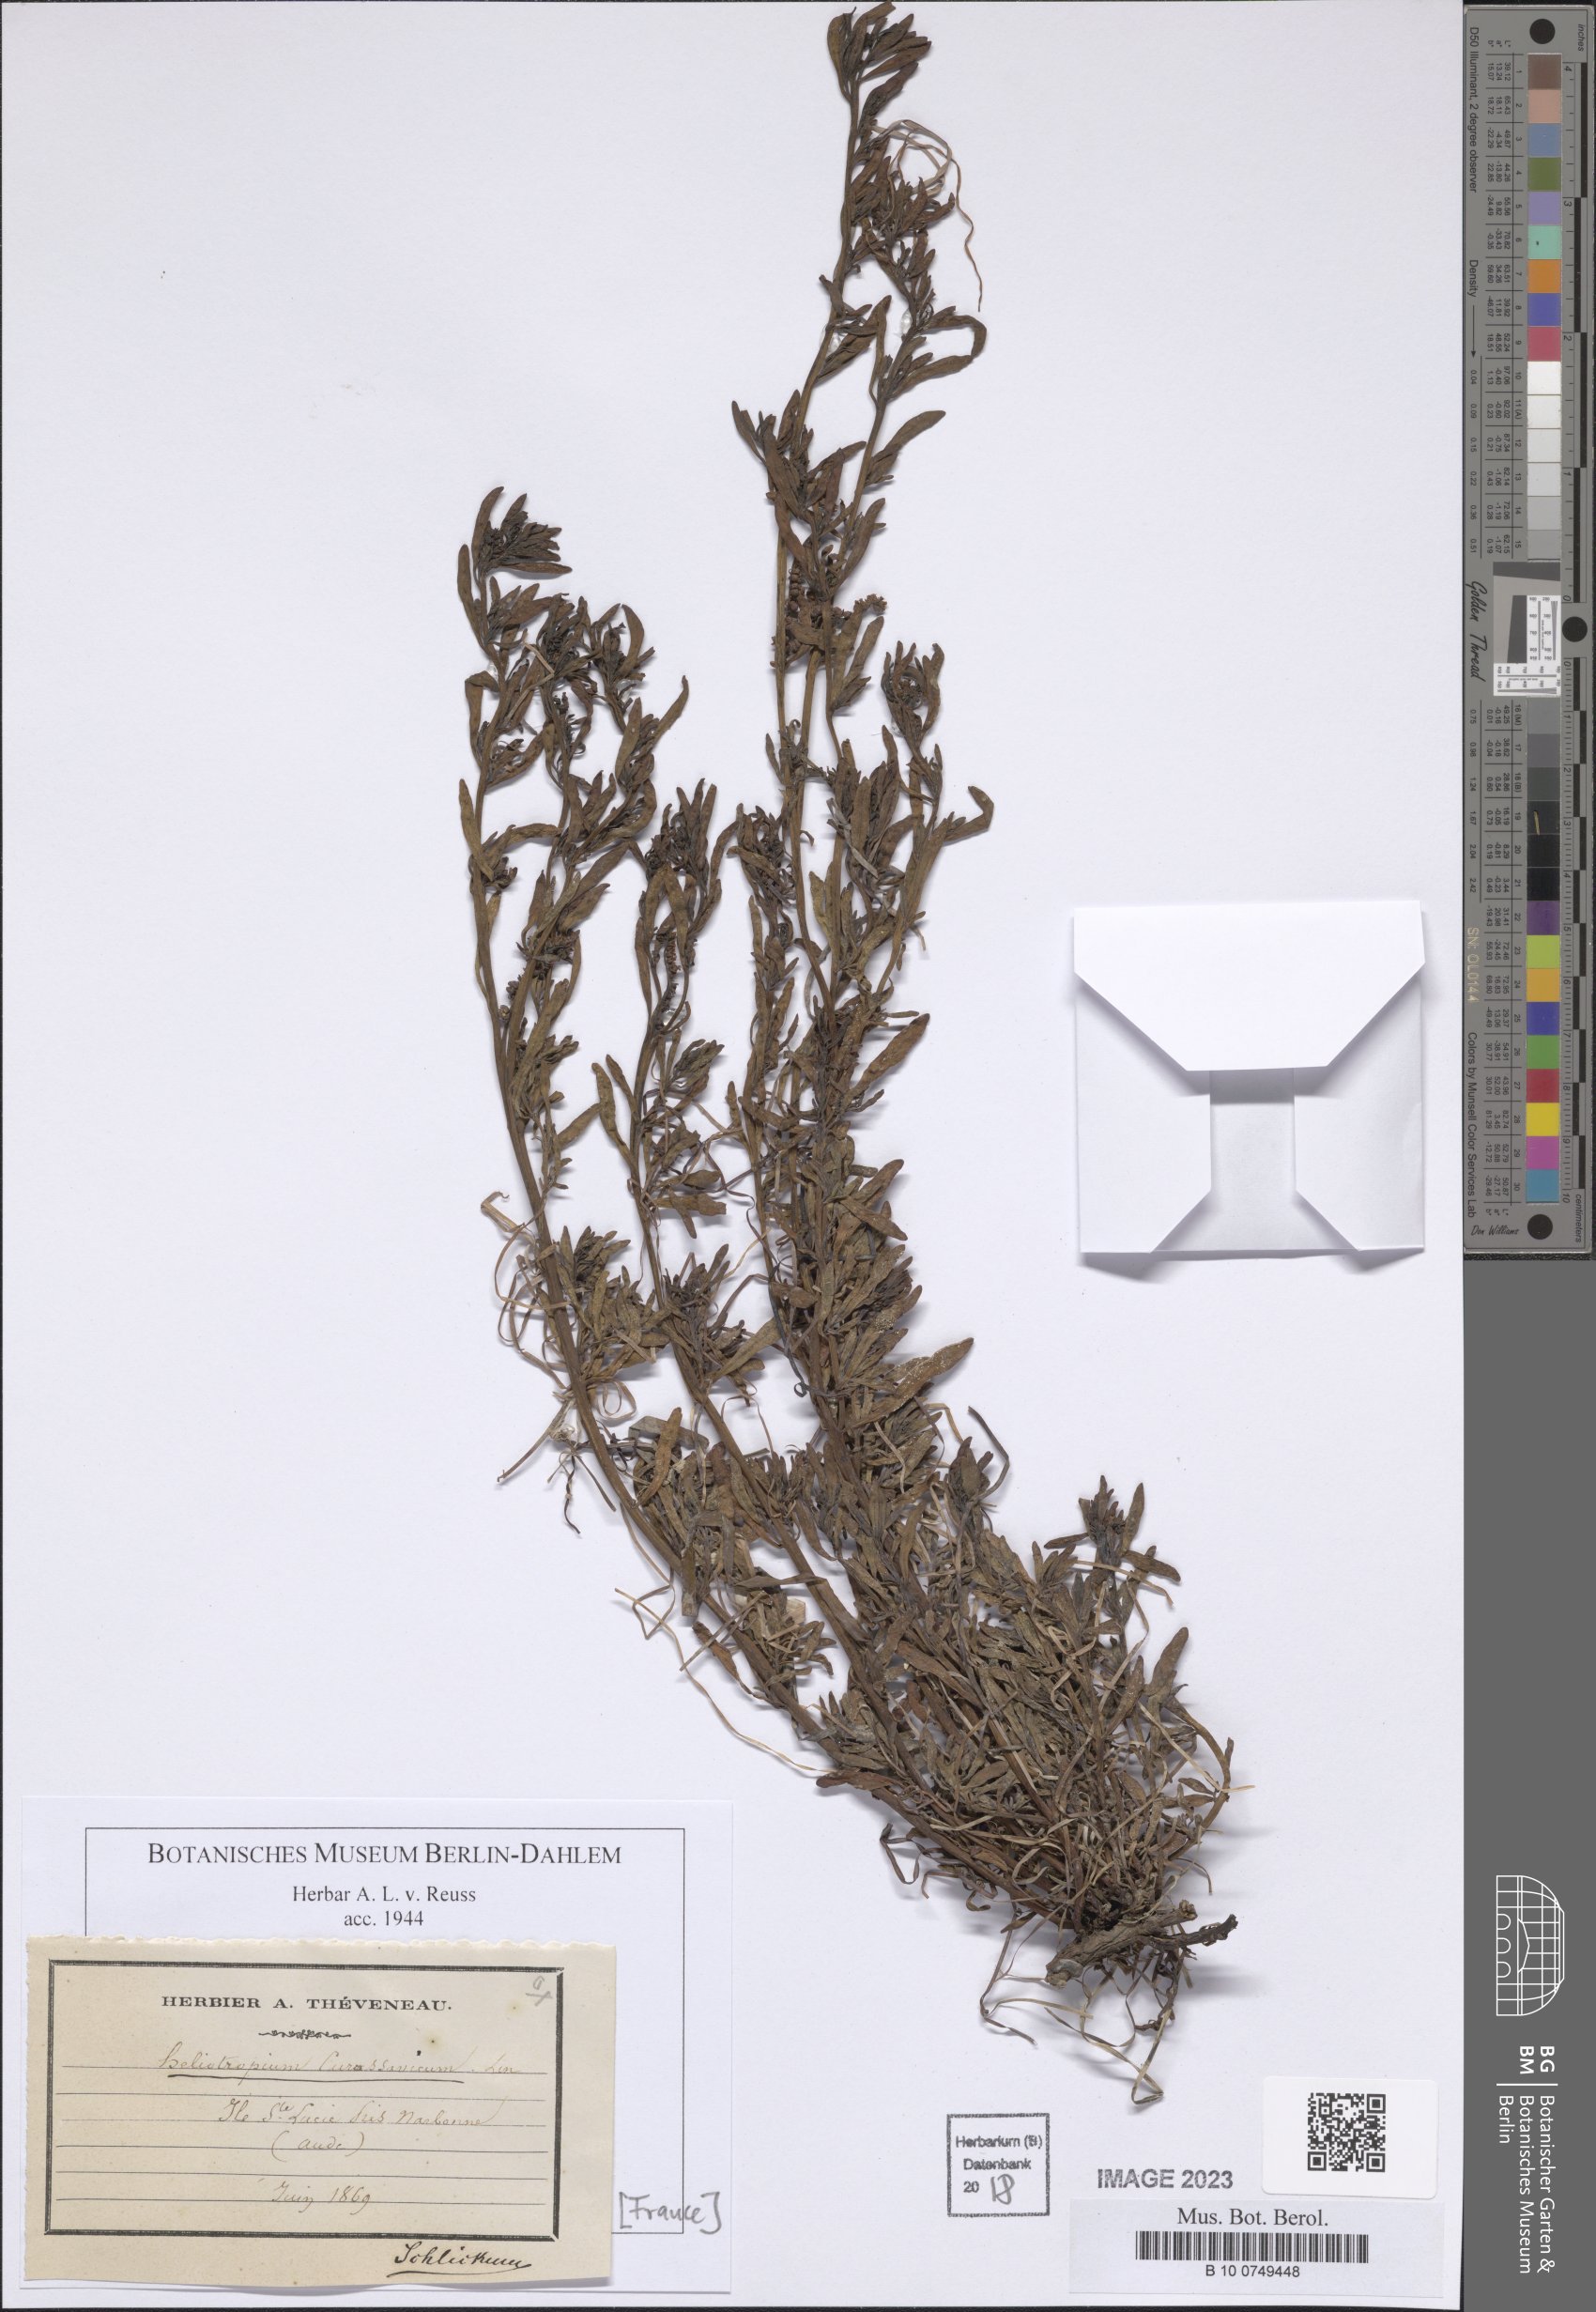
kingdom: Plantae
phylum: Tracheophyta
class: Magnoliopsida
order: Boraginales
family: Heliotropiaceae
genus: Heliotropium
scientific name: Heliotropium curassavicum
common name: Seaside heliotrope
